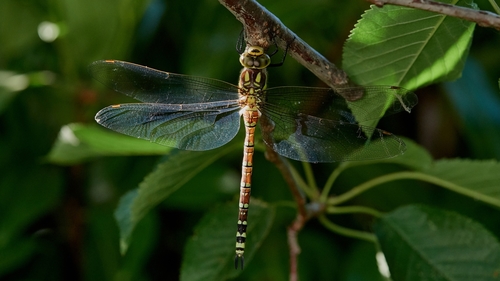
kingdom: Animalia
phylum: Arthropoda
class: Insecta
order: Odonata
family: Aeshnidae
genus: Aeshna
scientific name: Aeshna cyanea
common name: Southern hawker
